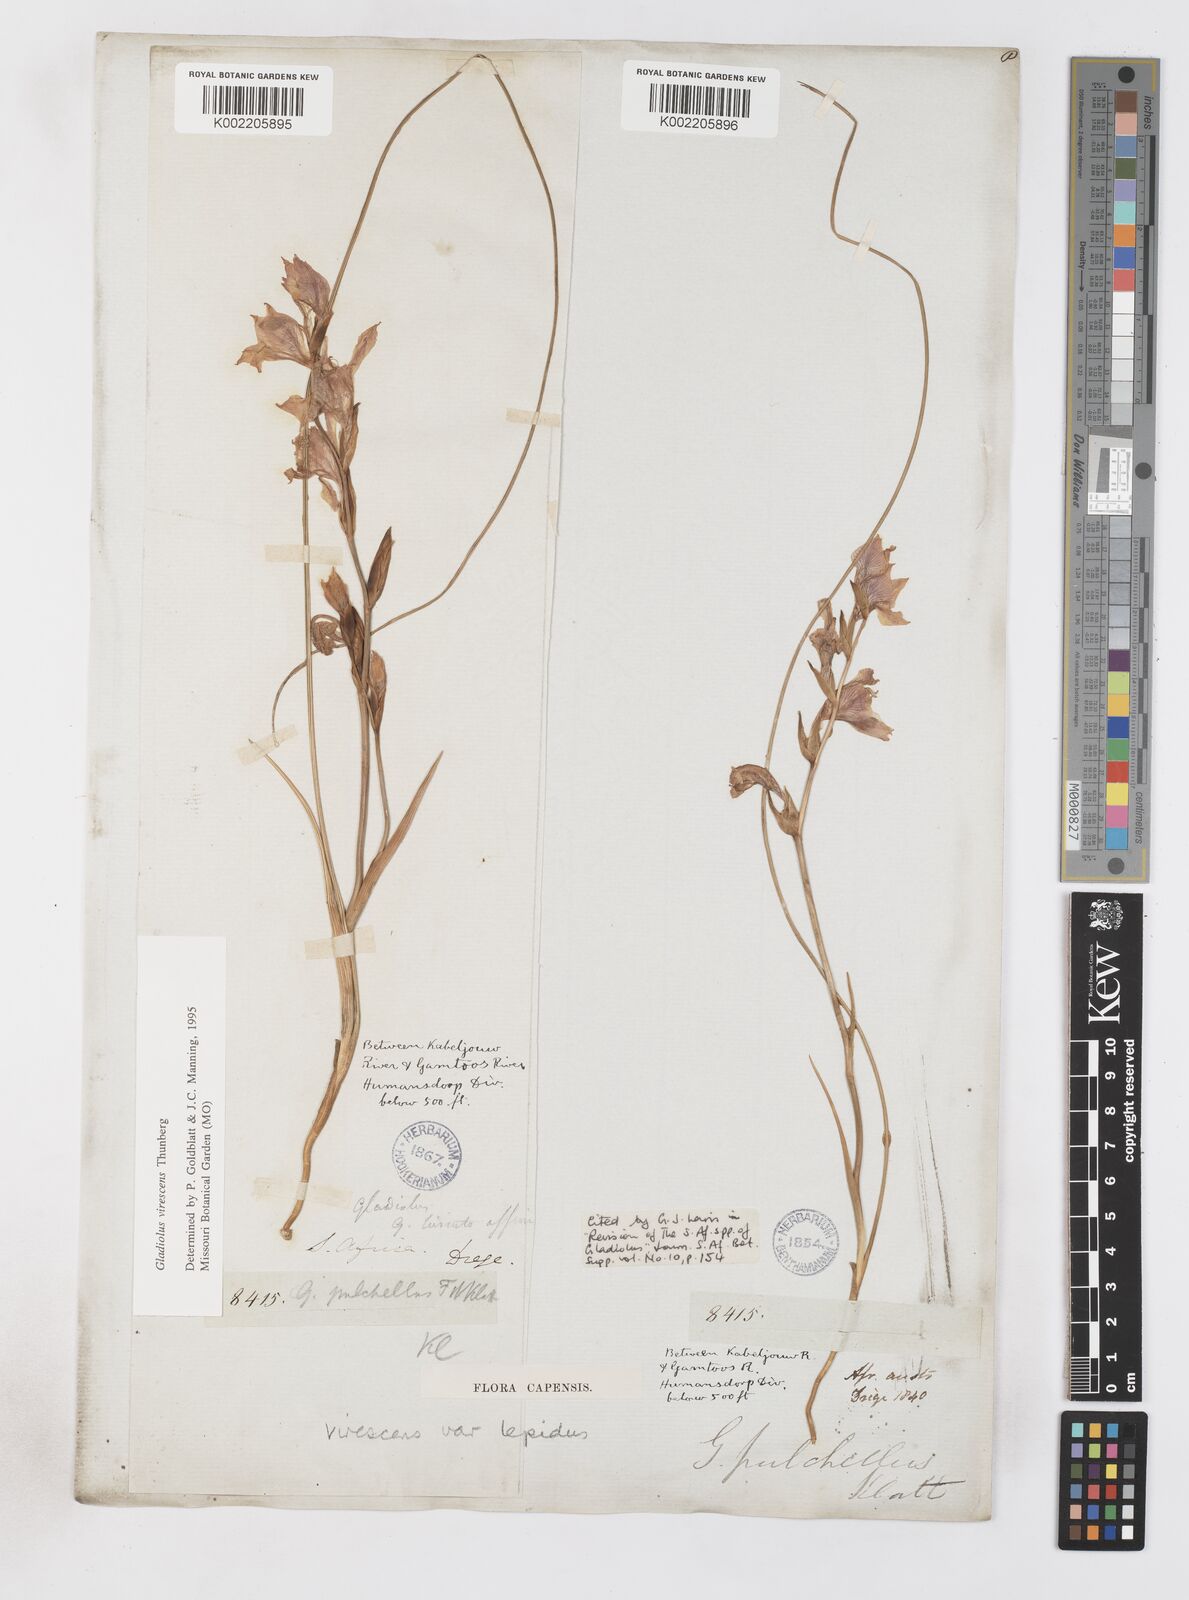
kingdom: Plantae
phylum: Tracheophyta
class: Liliopsida
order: Asparagales
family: Iridaceae
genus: Gladiolus
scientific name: Gladiolus virescens
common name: Yellow kalkoentjie
